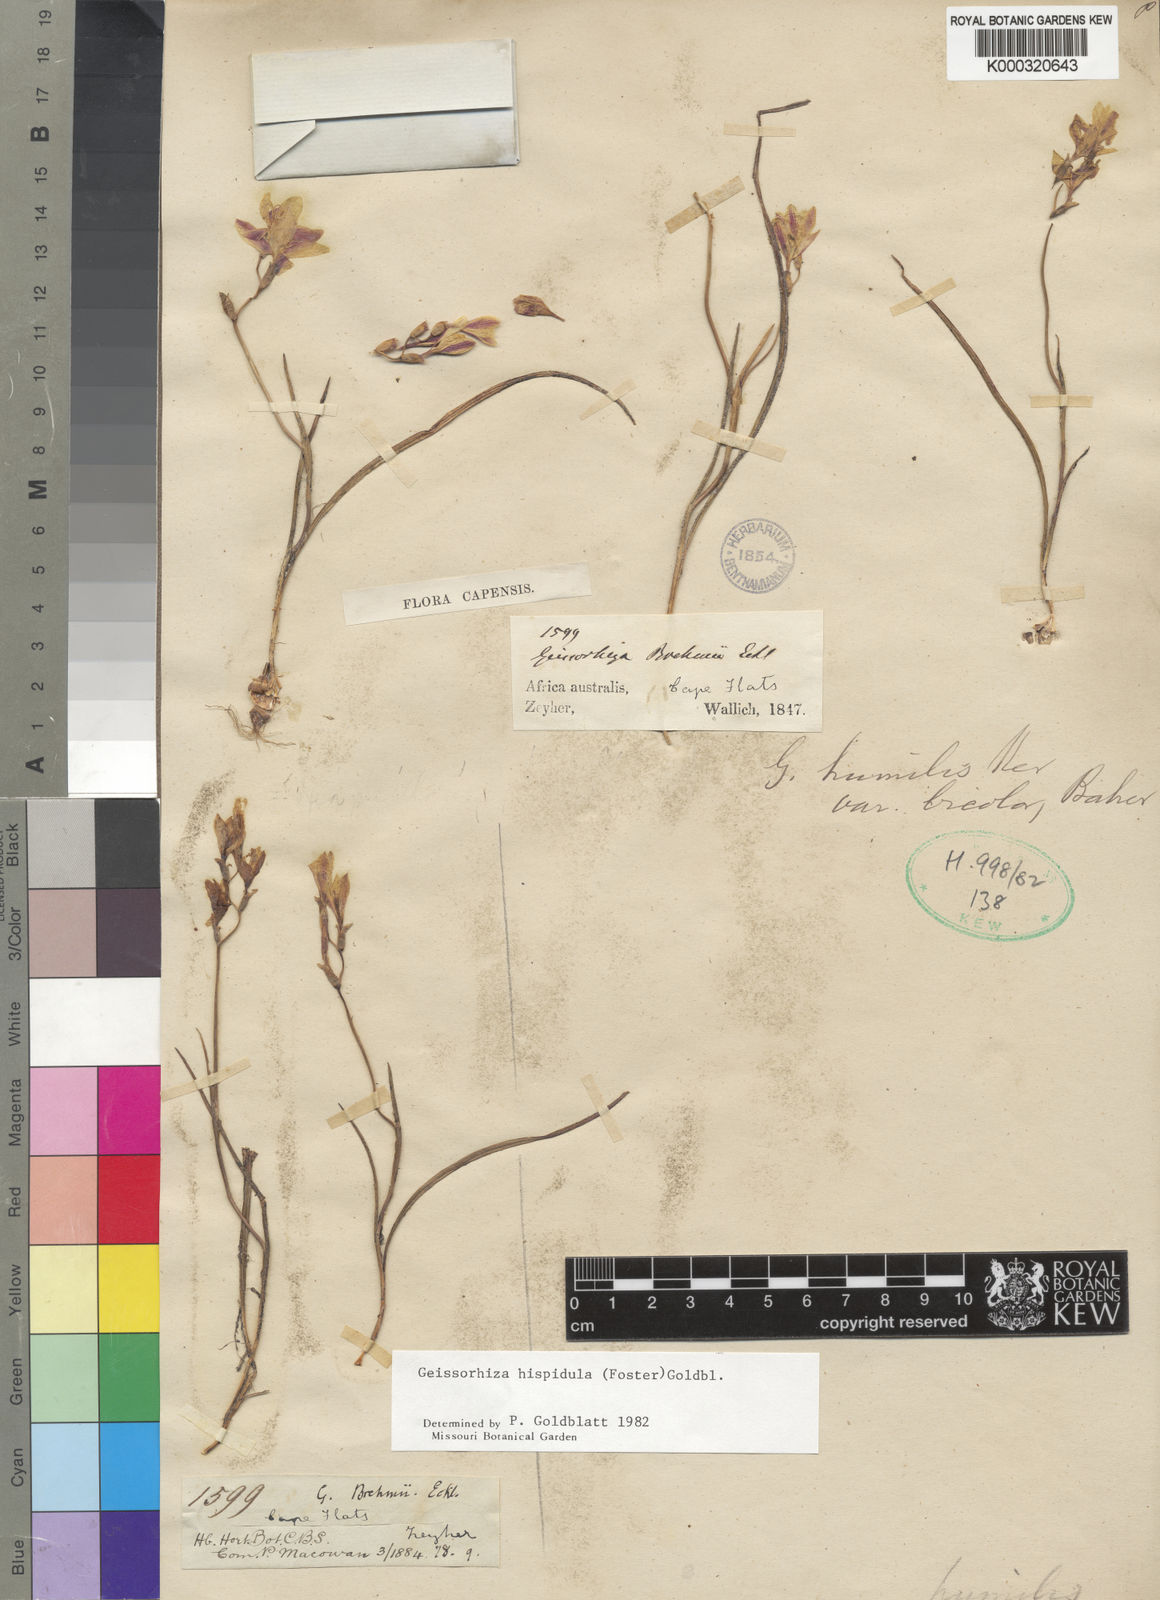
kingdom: Plantae
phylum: Tracheophyta
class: Liliopsida
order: Asparagales
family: Iridaceae
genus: Geissorhiza
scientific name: Geissorhiza hispidula
